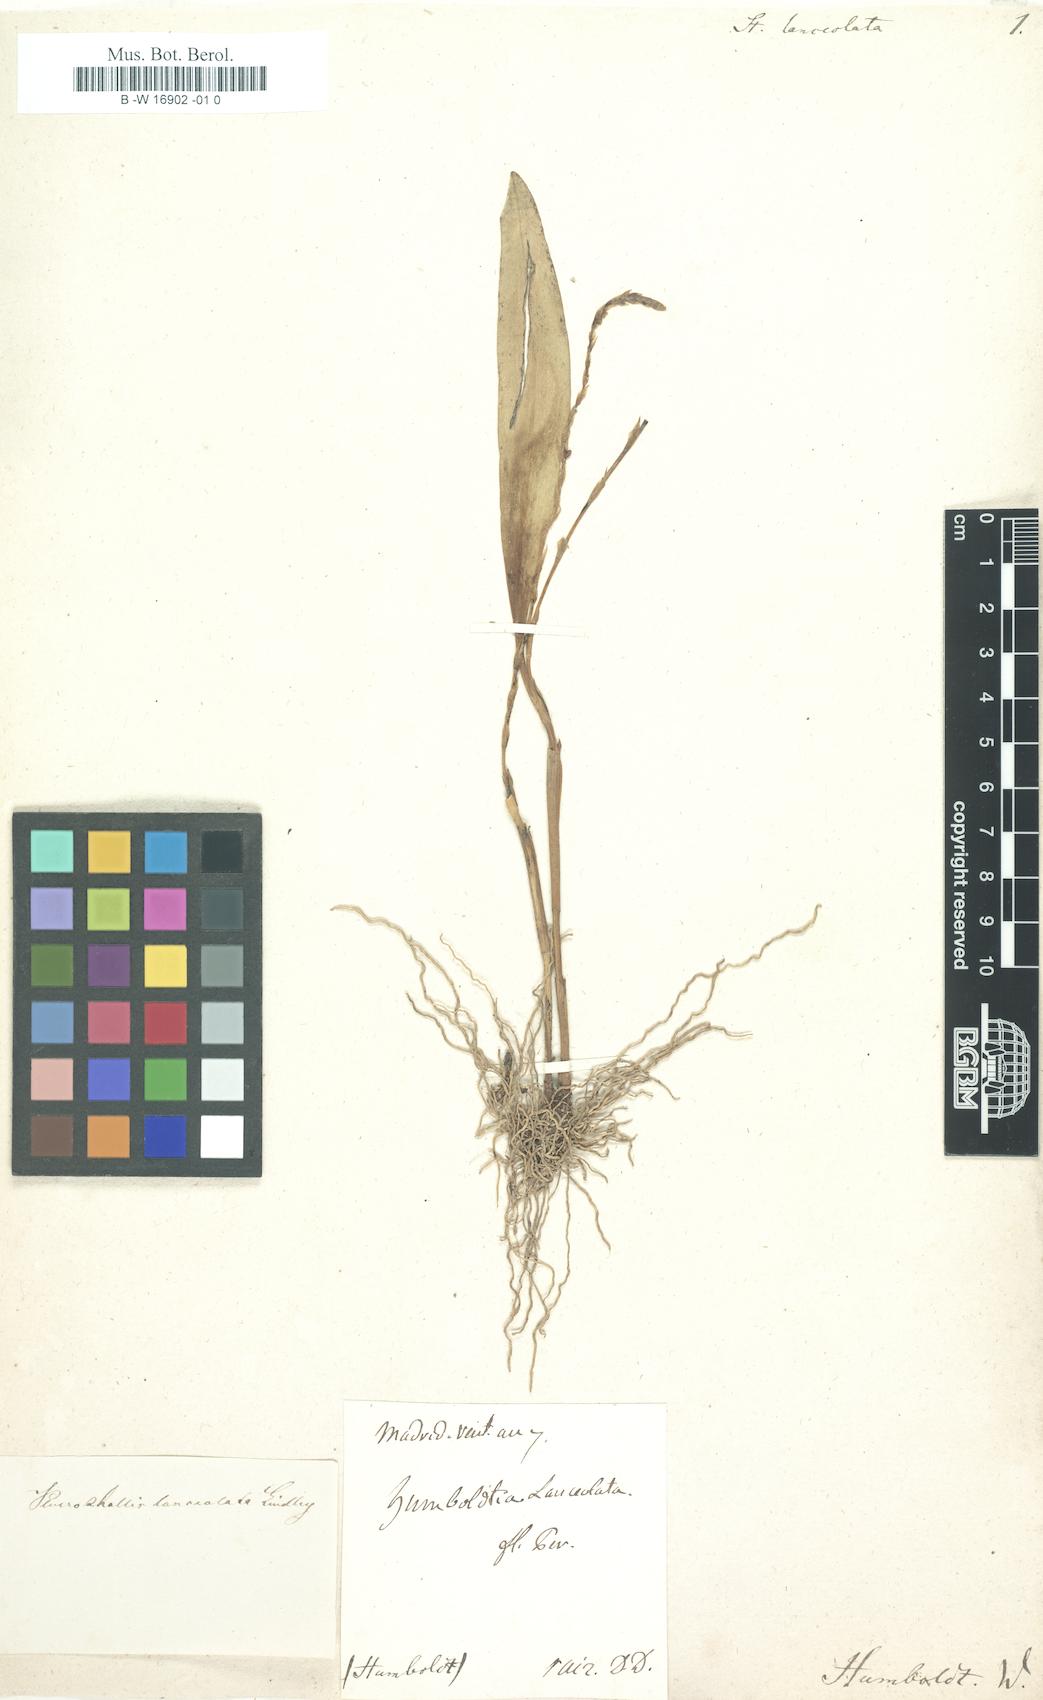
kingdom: Plantae
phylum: Tracheophyta
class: Liliopsida
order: Asparagales
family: Orchidaceae
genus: Stelis
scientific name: Stelis lanceolata
